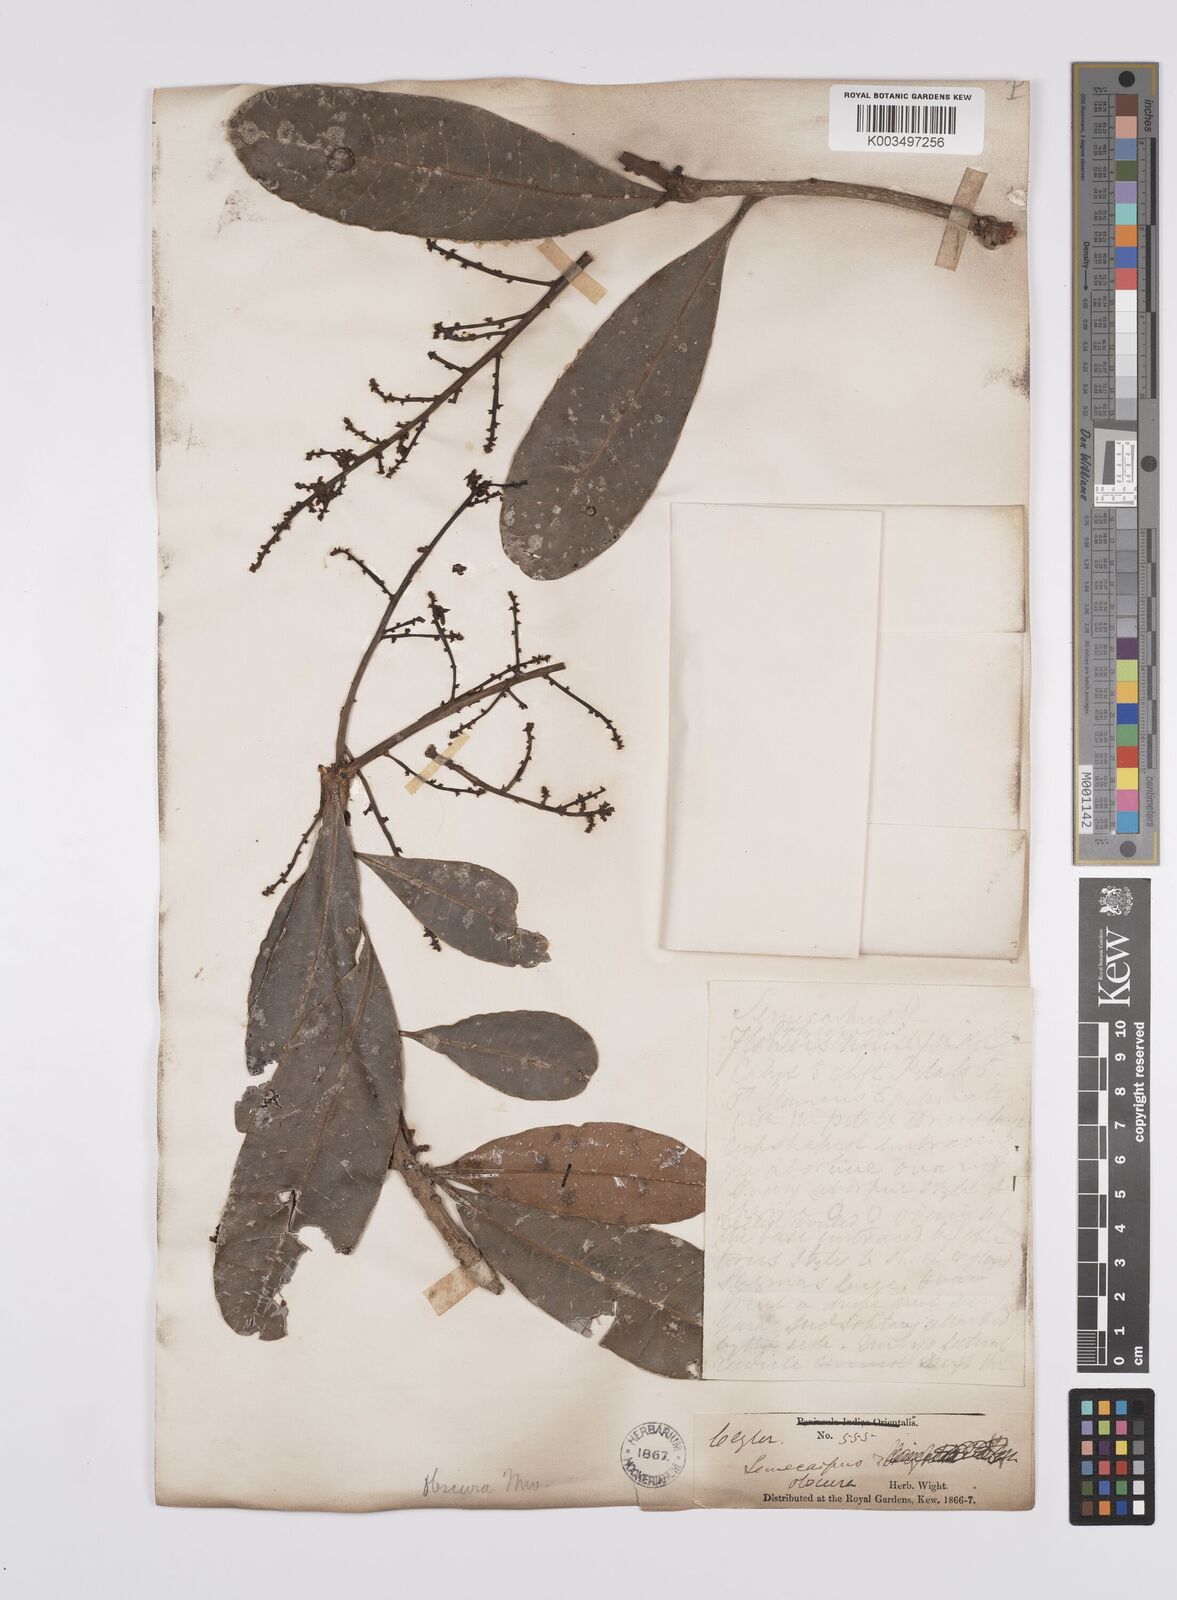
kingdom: Plantae
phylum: Tracheophyta
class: Magnoliopsida
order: Sapindales
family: Anacardiaceae
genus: Semecarpus
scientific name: Semecarpus walkeri
